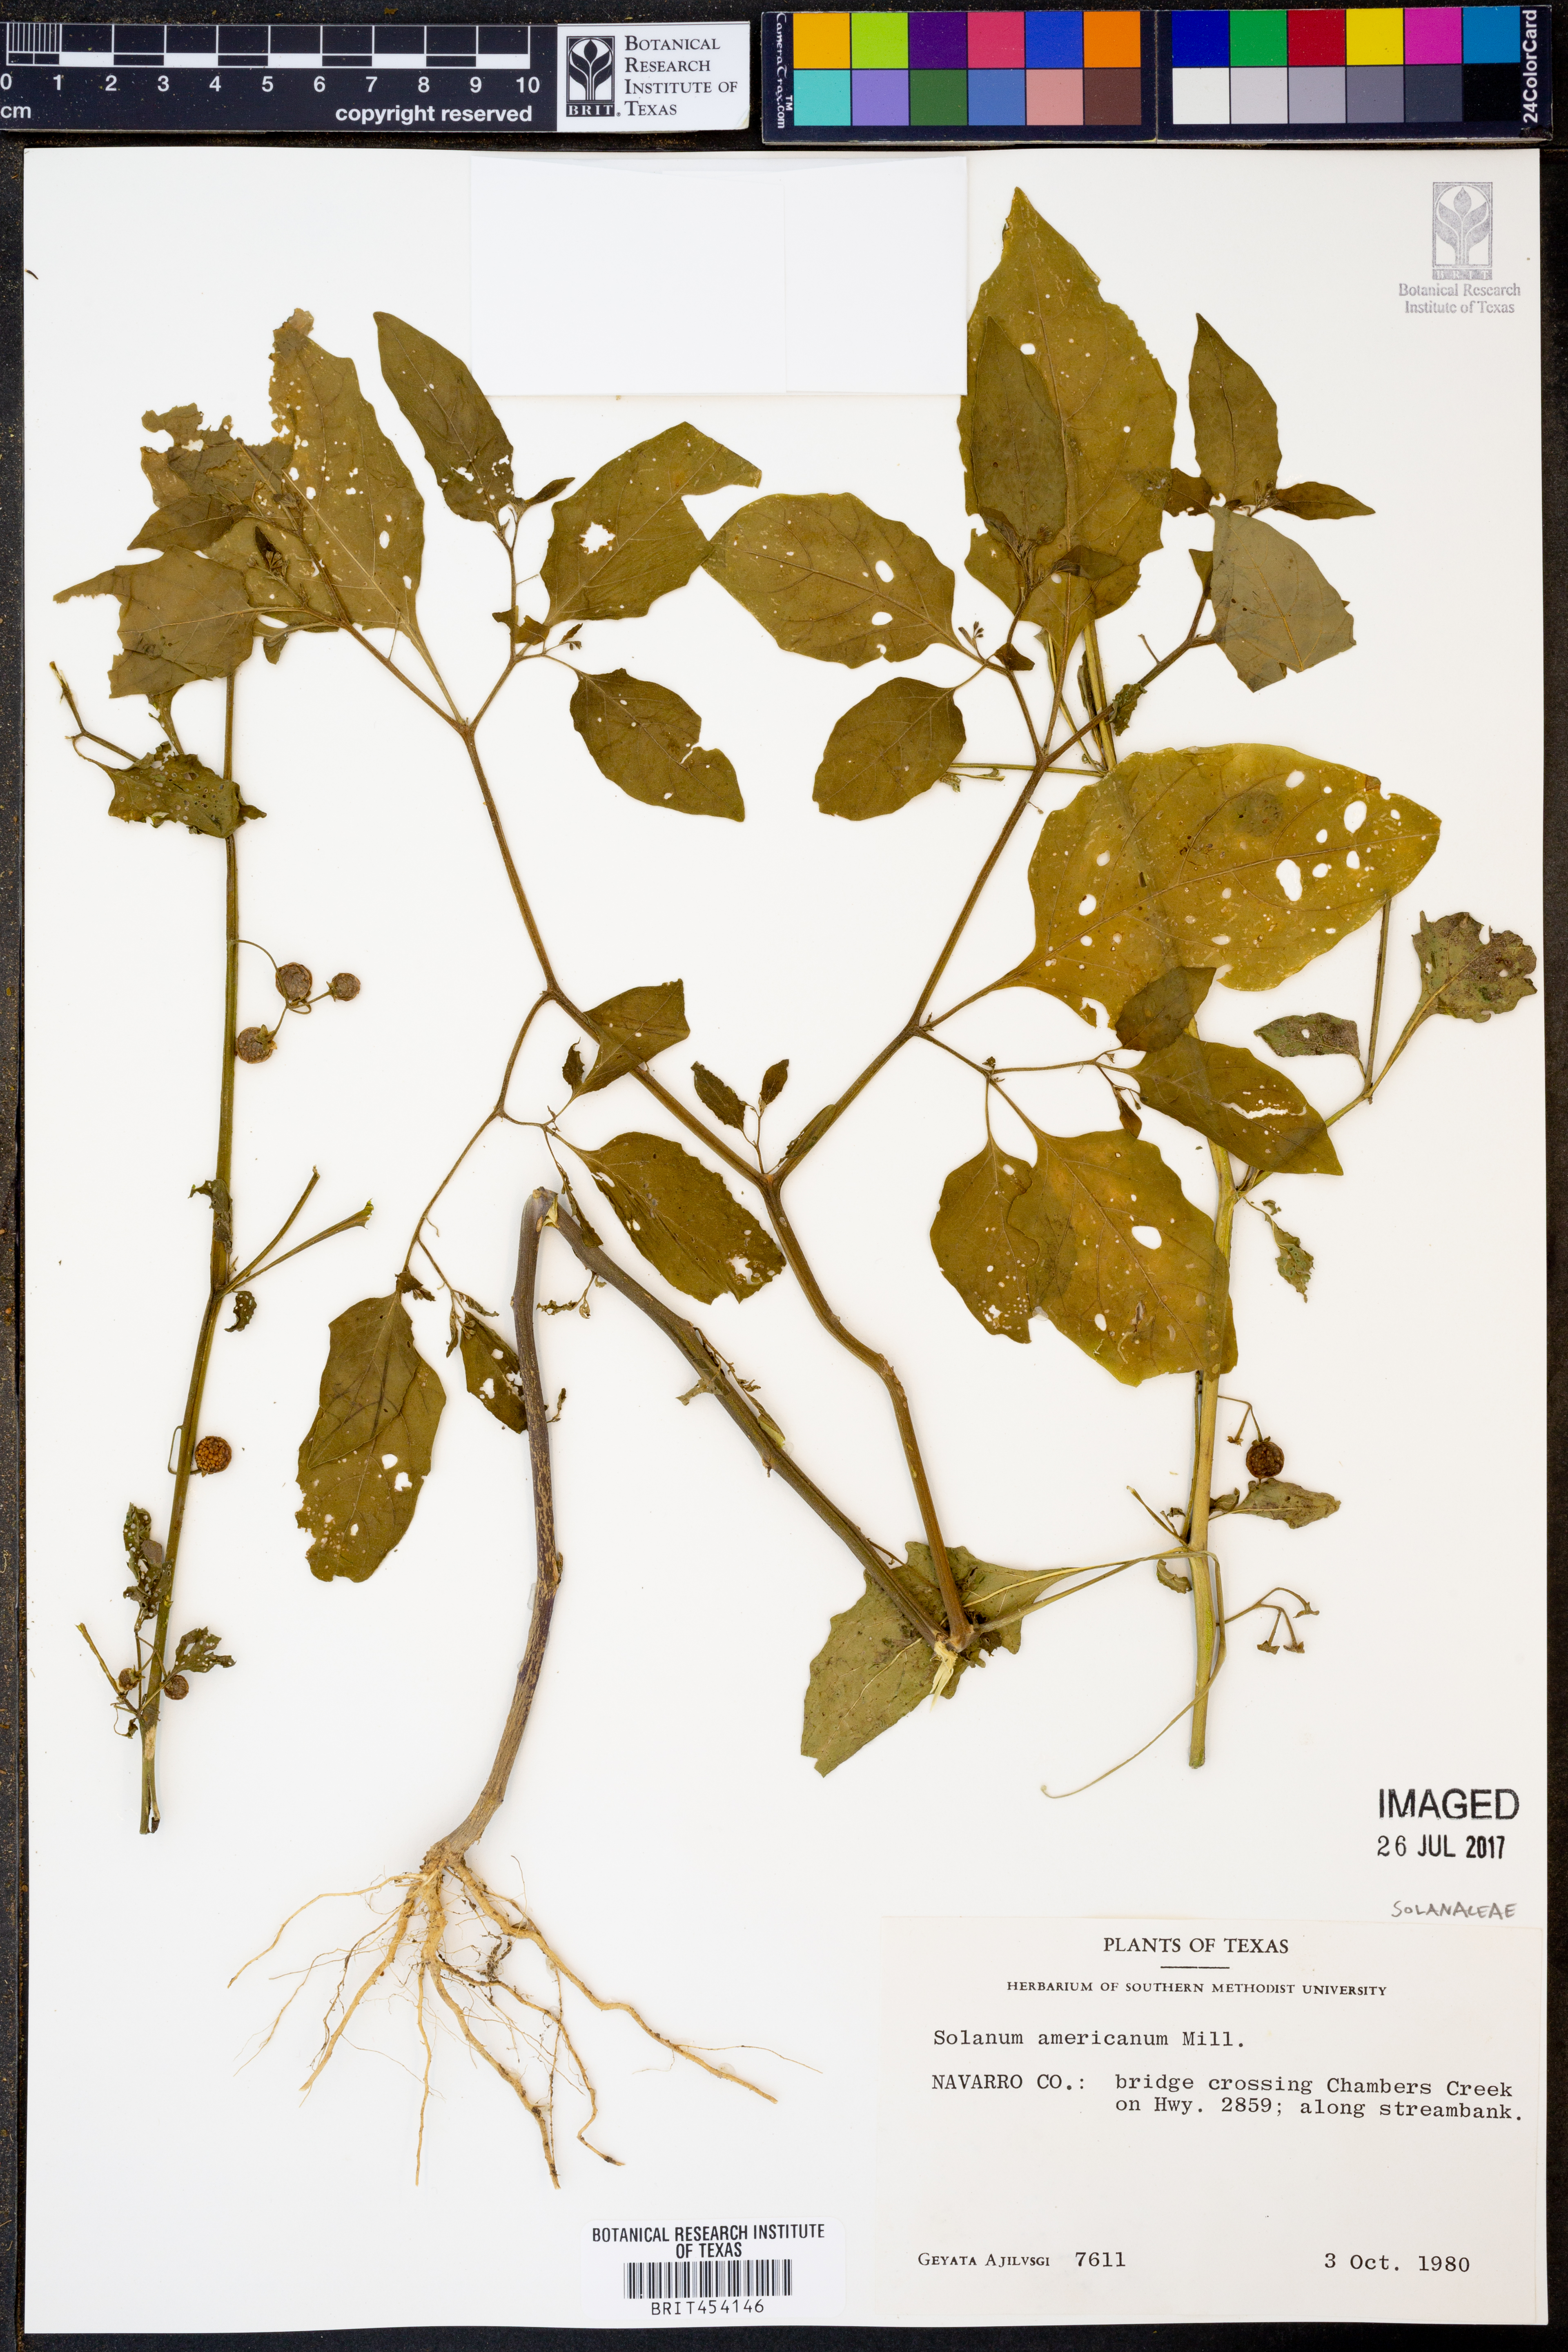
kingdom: Plantae
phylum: Tracheophyta
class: Magnoliopsida
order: Solanales
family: Solanaceae
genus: Solanum
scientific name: Solanum americanum
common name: American black nightshade
